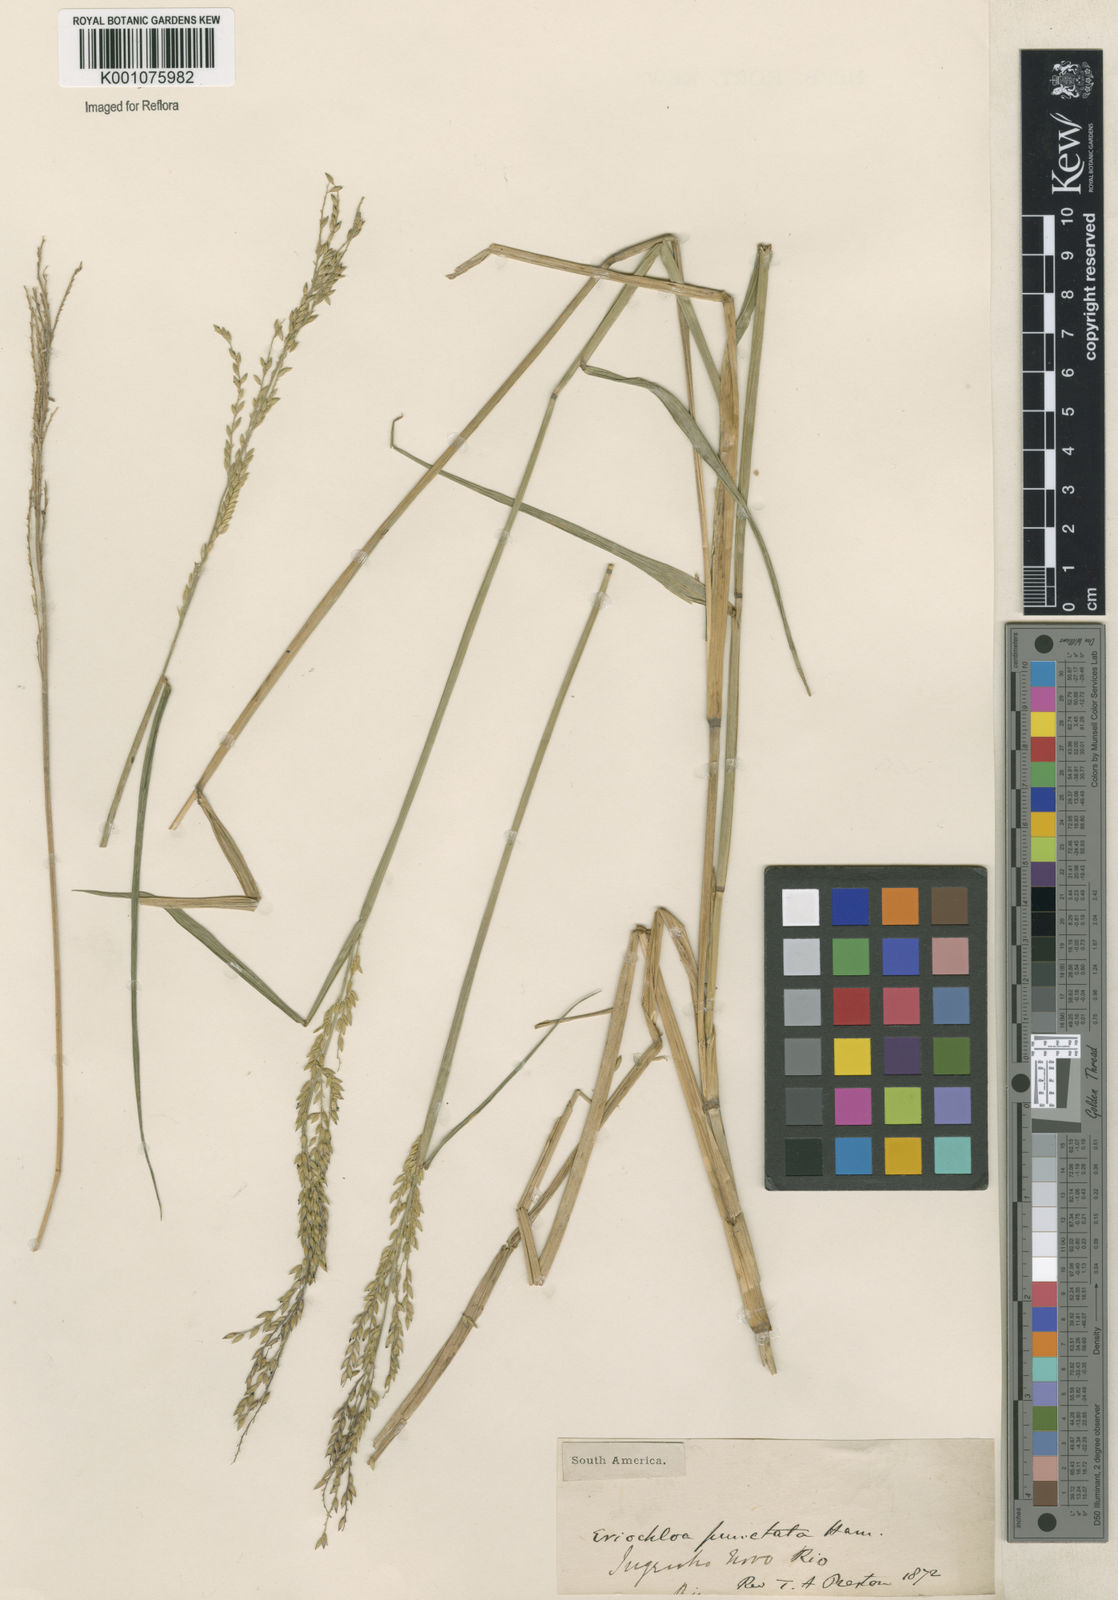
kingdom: Plantae
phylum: Tracheophyta
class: Liliopsida
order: Poales
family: Poaceae
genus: Eriochloa
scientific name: Eriochloa punctata
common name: Louisiana cupgrass
